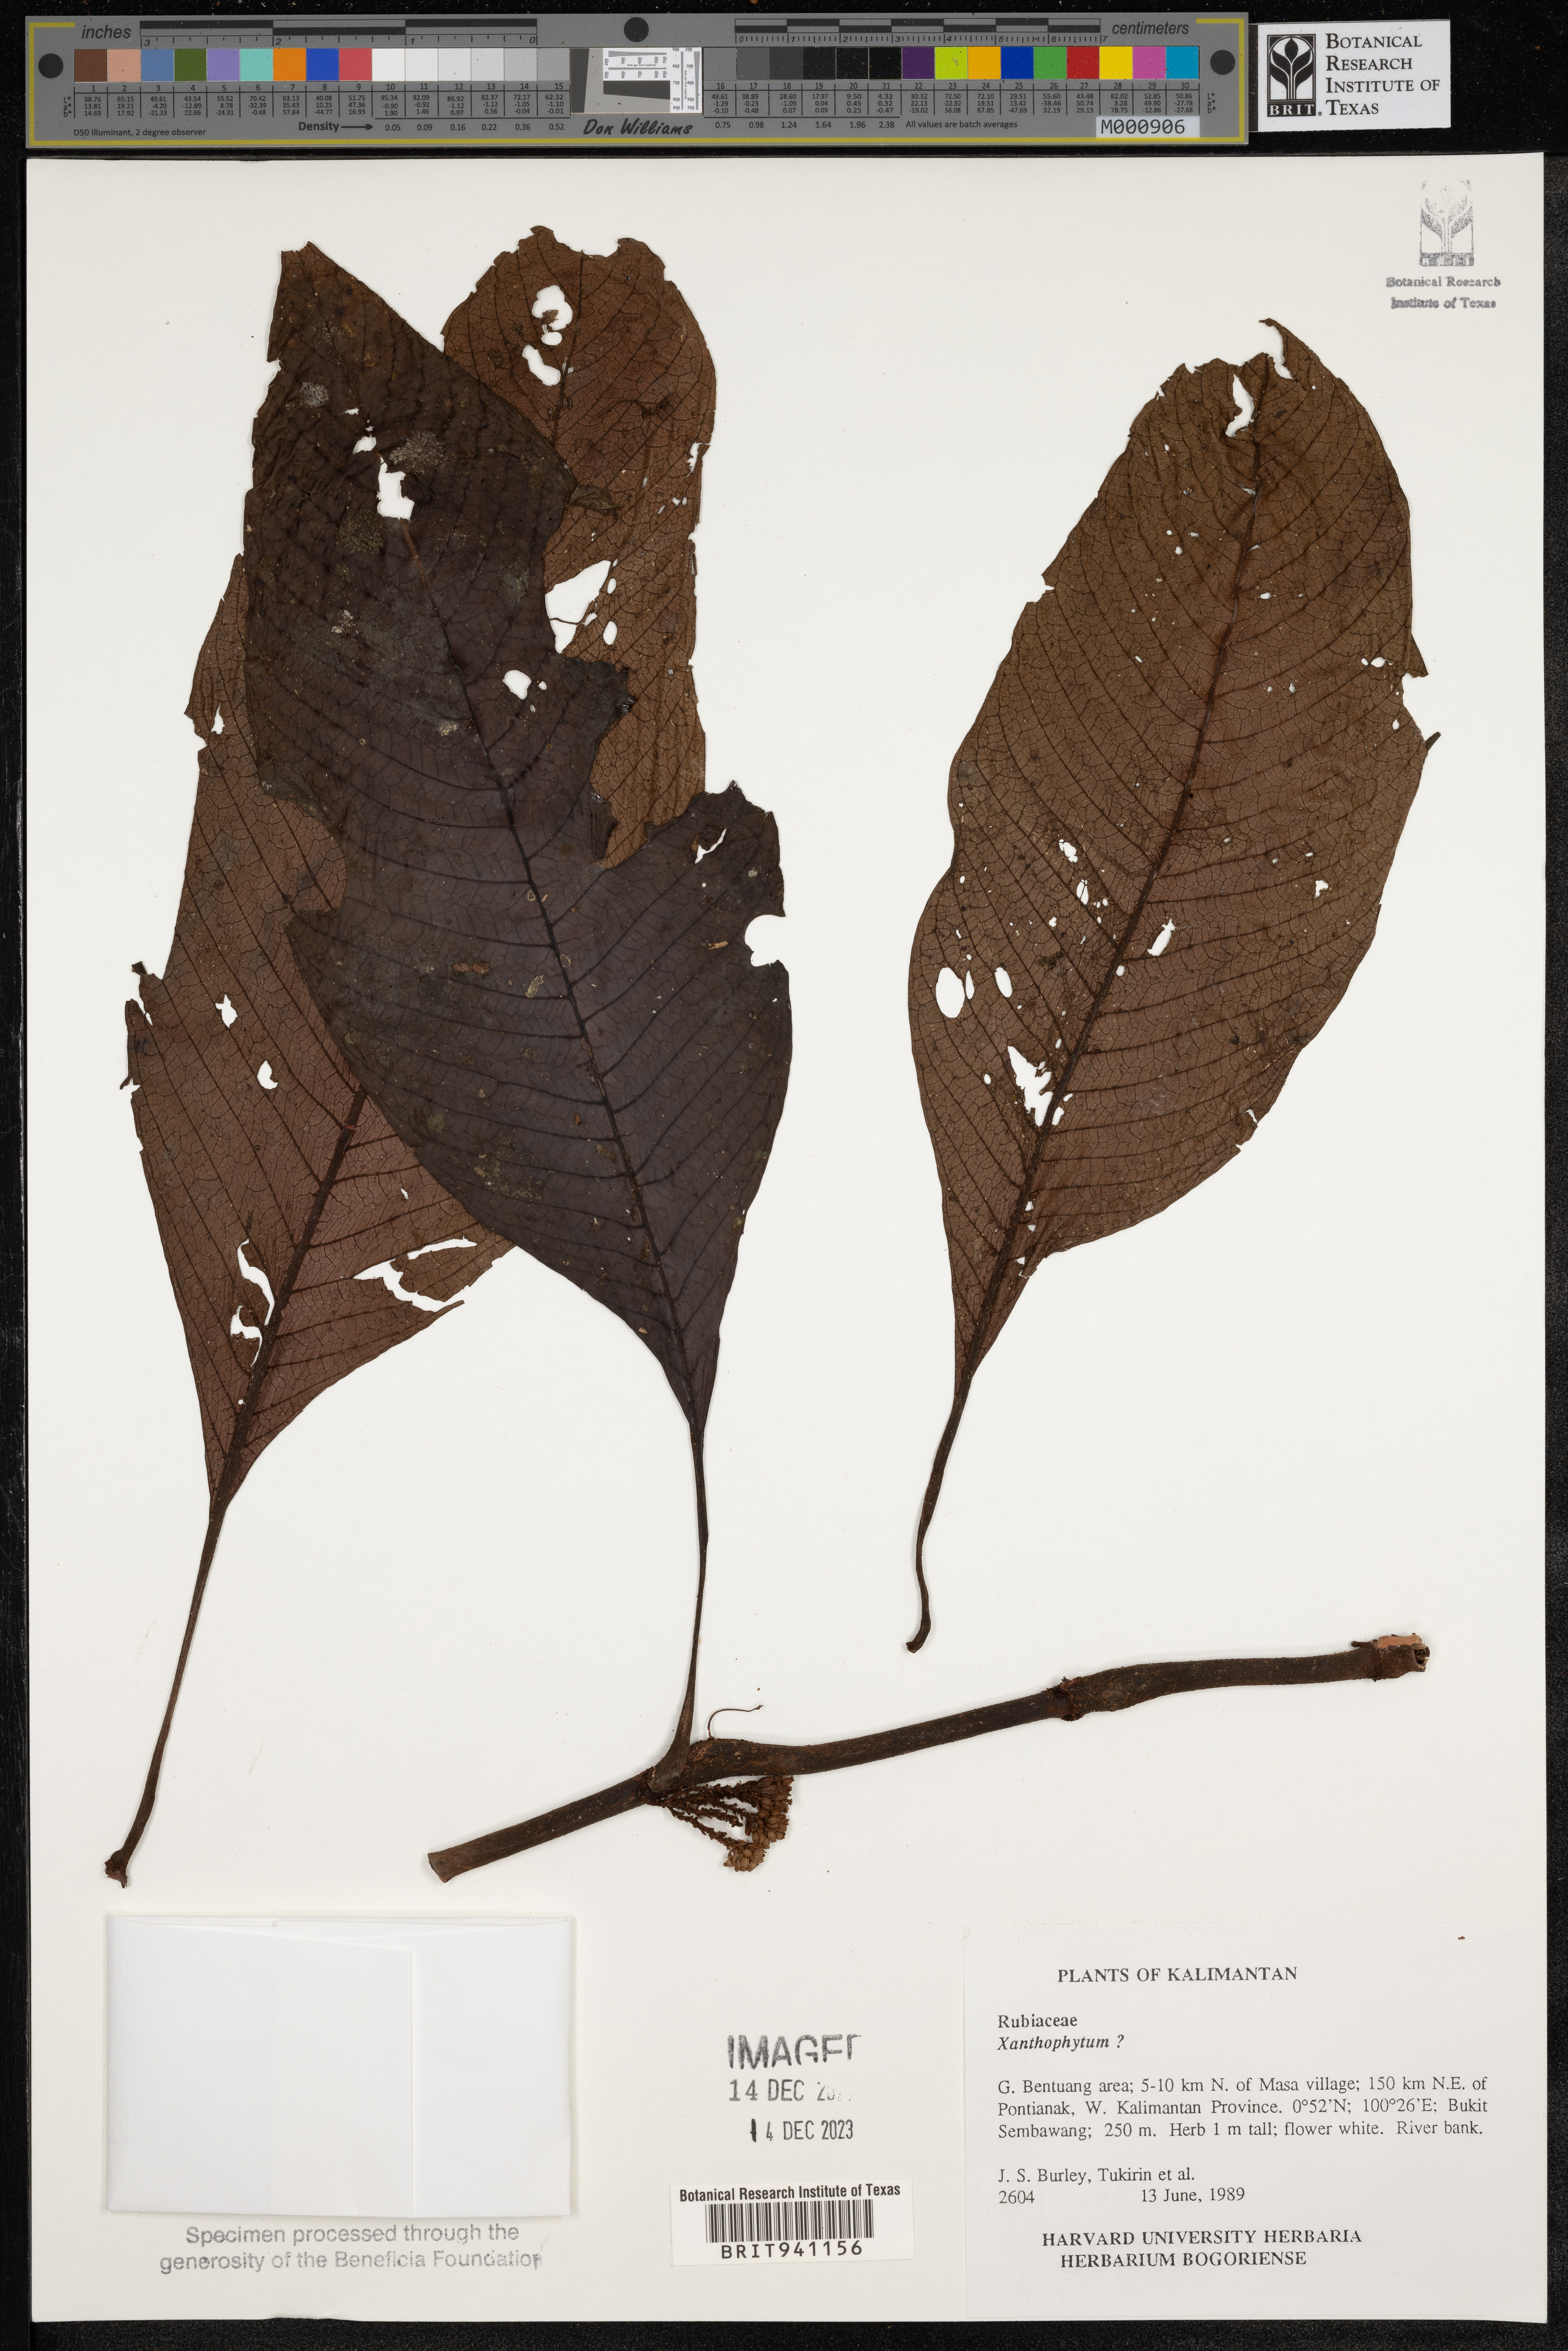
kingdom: Plantae
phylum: Tracheophyta
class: Magnoliopsida
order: Gentianales
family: Rubiaceae
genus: Xanthophytum
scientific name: Xanthophytum
